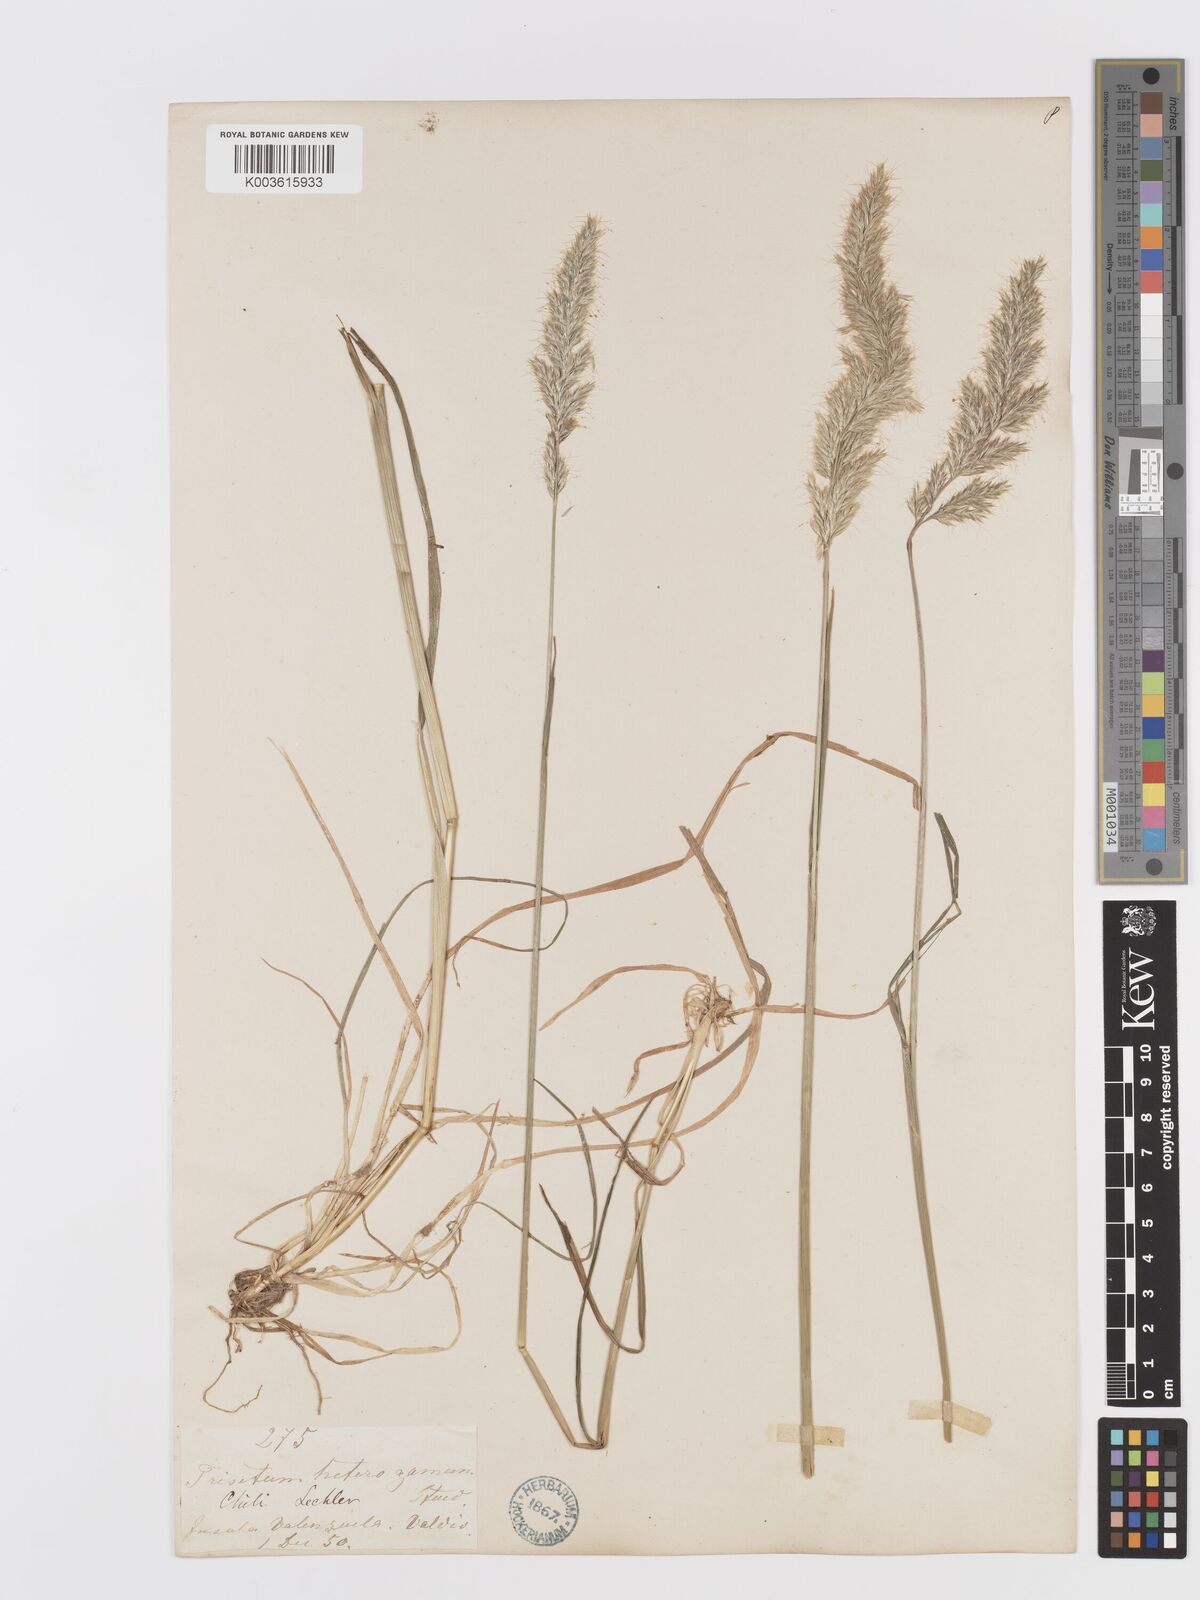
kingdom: Plantae
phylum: Tracheophyta
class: Liliopsida
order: Poales
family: Poaceae
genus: Koeleria
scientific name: Koeleria spicata
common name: Mountain trisetum
